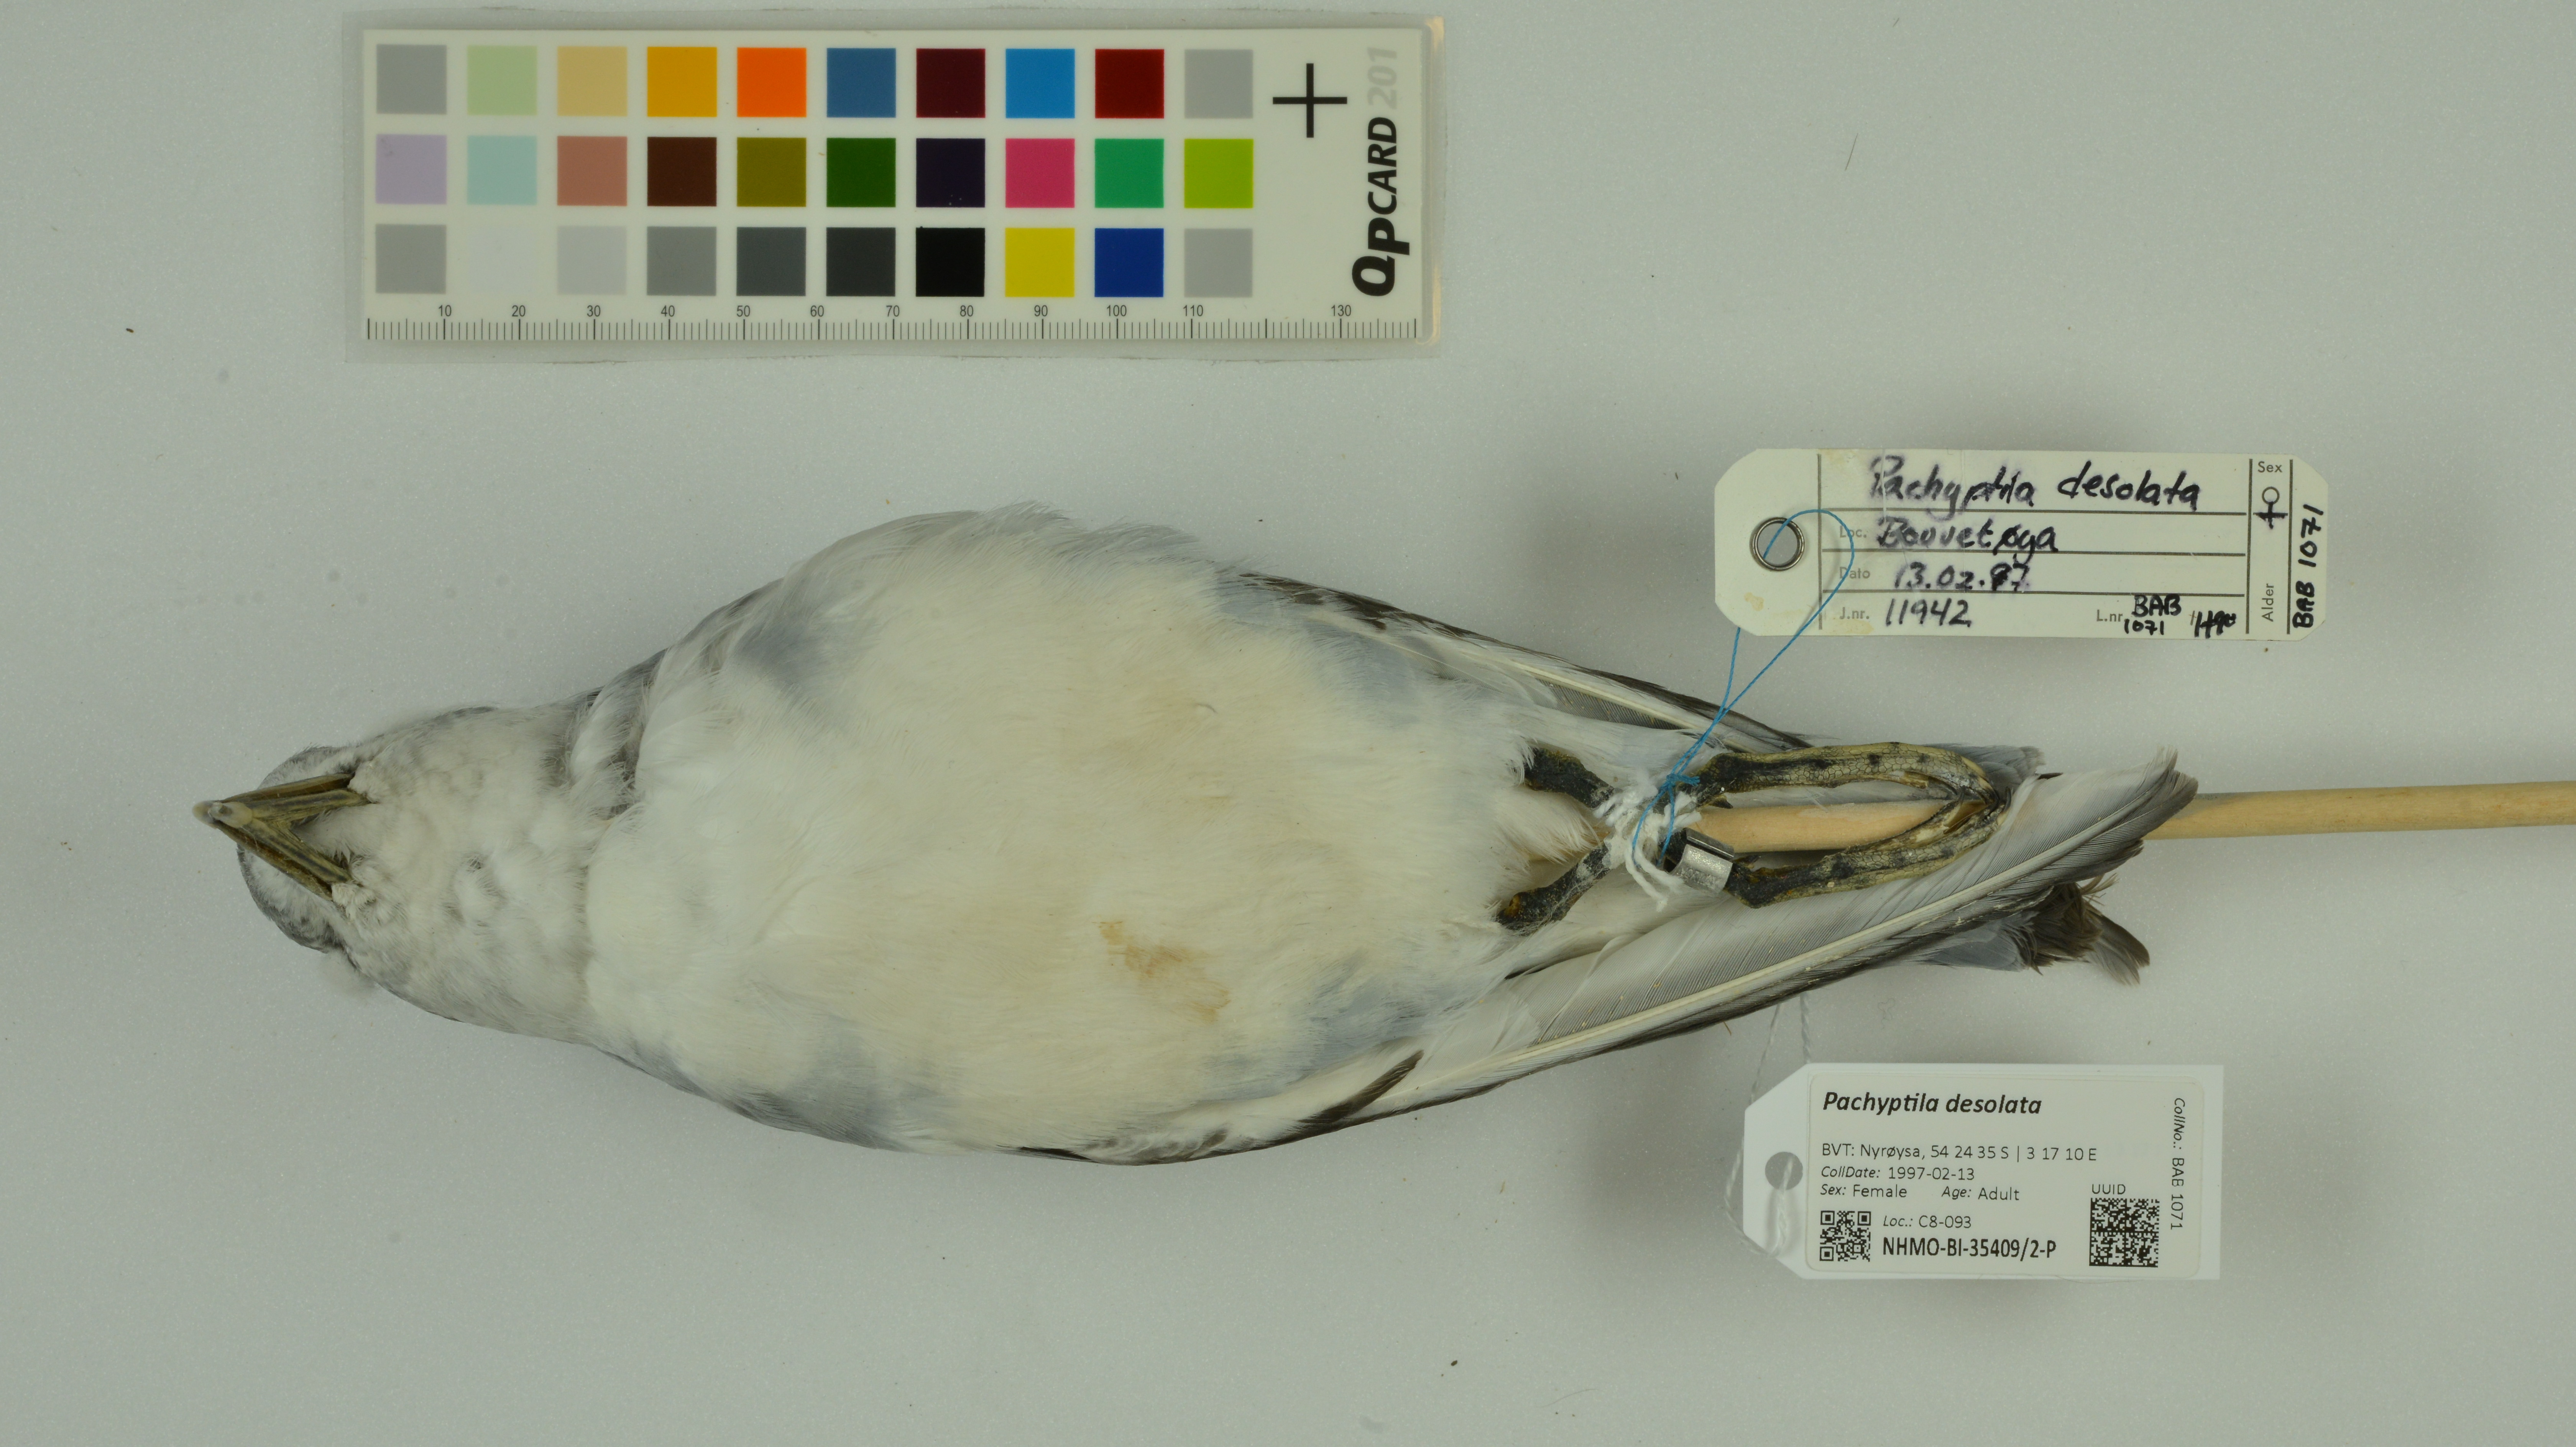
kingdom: Animalia
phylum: Chordata
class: Aves
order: Procellariiformes
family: Procellariidae
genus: Pachyptila
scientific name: Pachyptila desolata
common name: Antarctic prion
